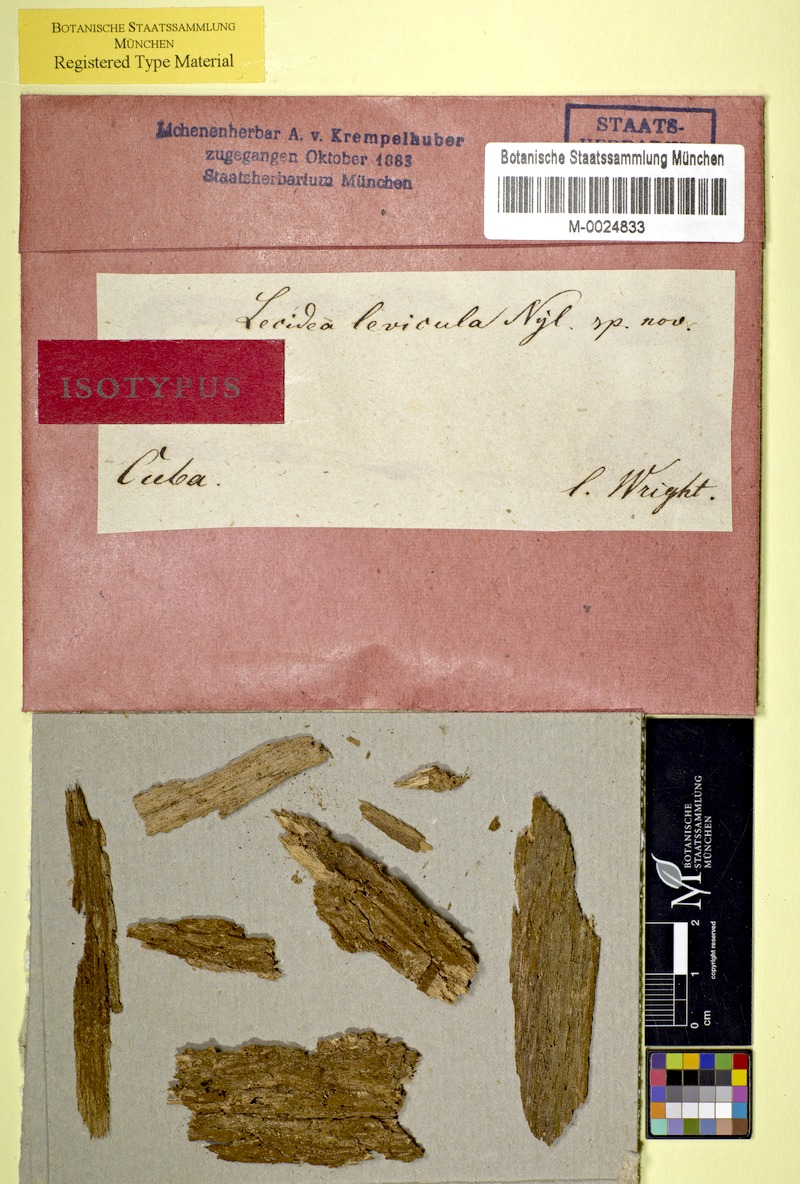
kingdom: Fungi
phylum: Ascomycota
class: Lecanoromycetes
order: Lecanorales
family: Byssolomataceae
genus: Micarea
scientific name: Micarea levicula
